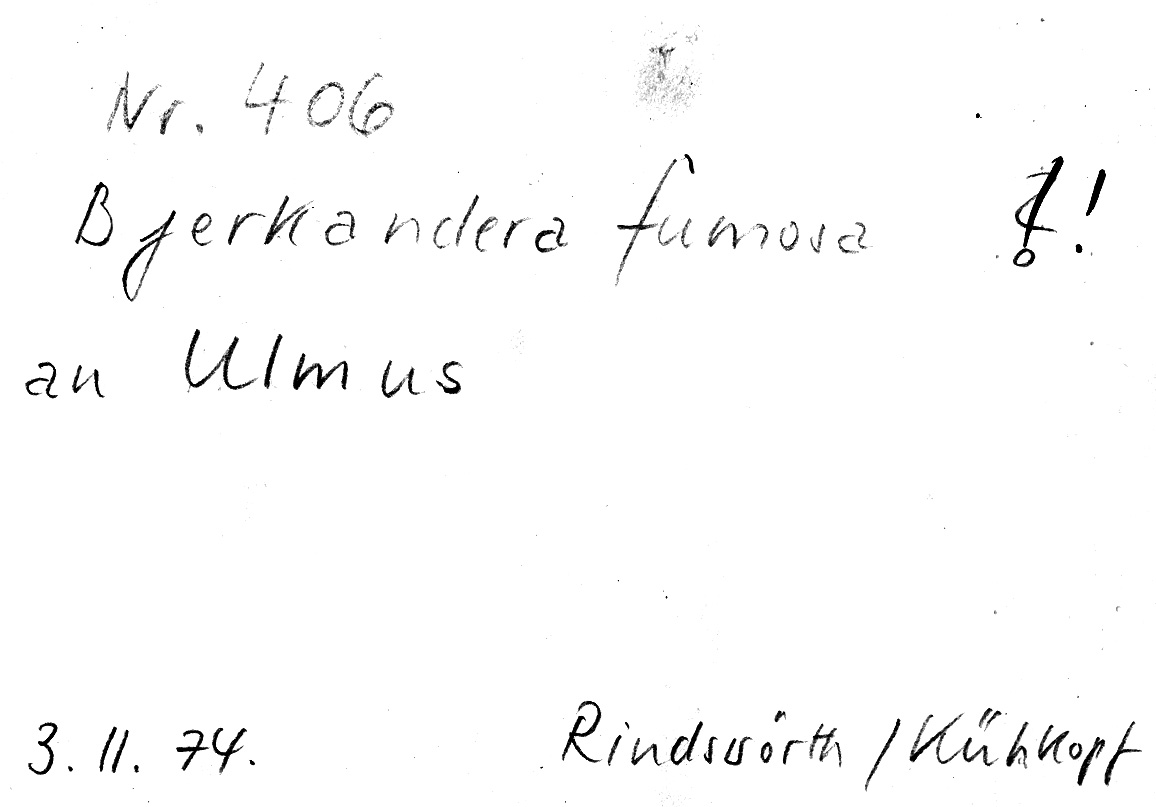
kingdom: Plantae
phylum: Tracheophyta
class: Magnoliopsida
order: Rosales
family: Ulmaceae
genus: Ulmus
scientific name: Ulmus
